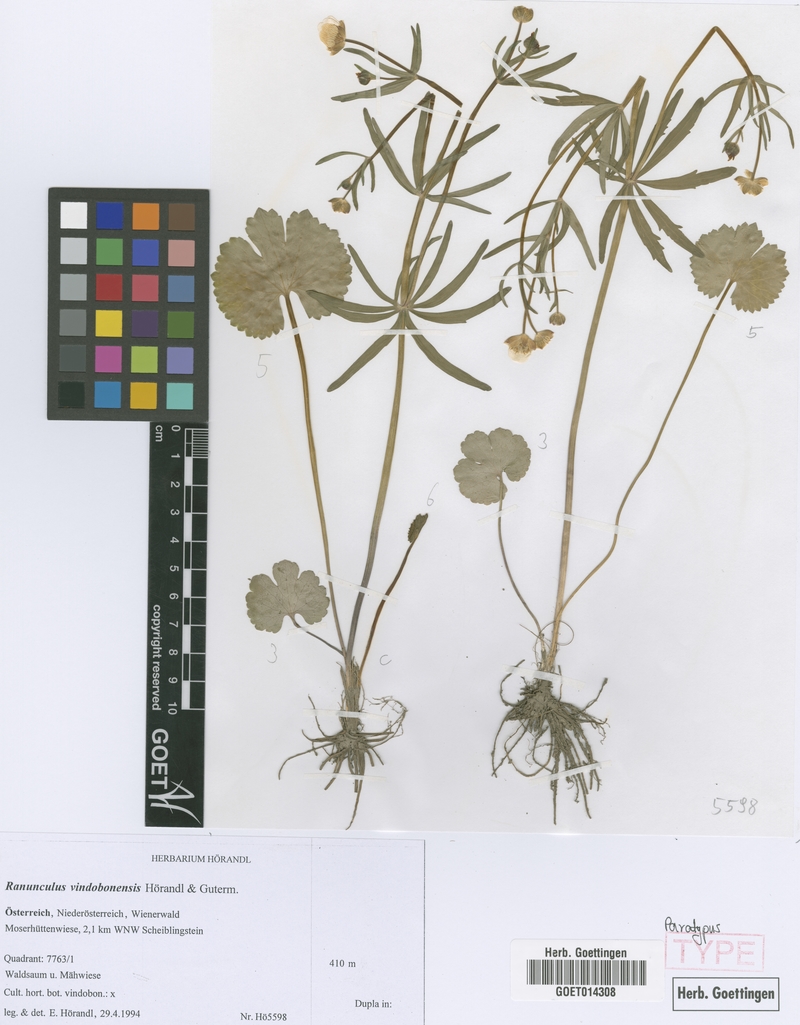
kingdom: Plantae
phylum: Tracheophyta
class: Magnoliopsida
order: Ranunculales
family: Ranunculaceae
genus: Ranunculus
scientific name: Ranunculus vindobonensis
